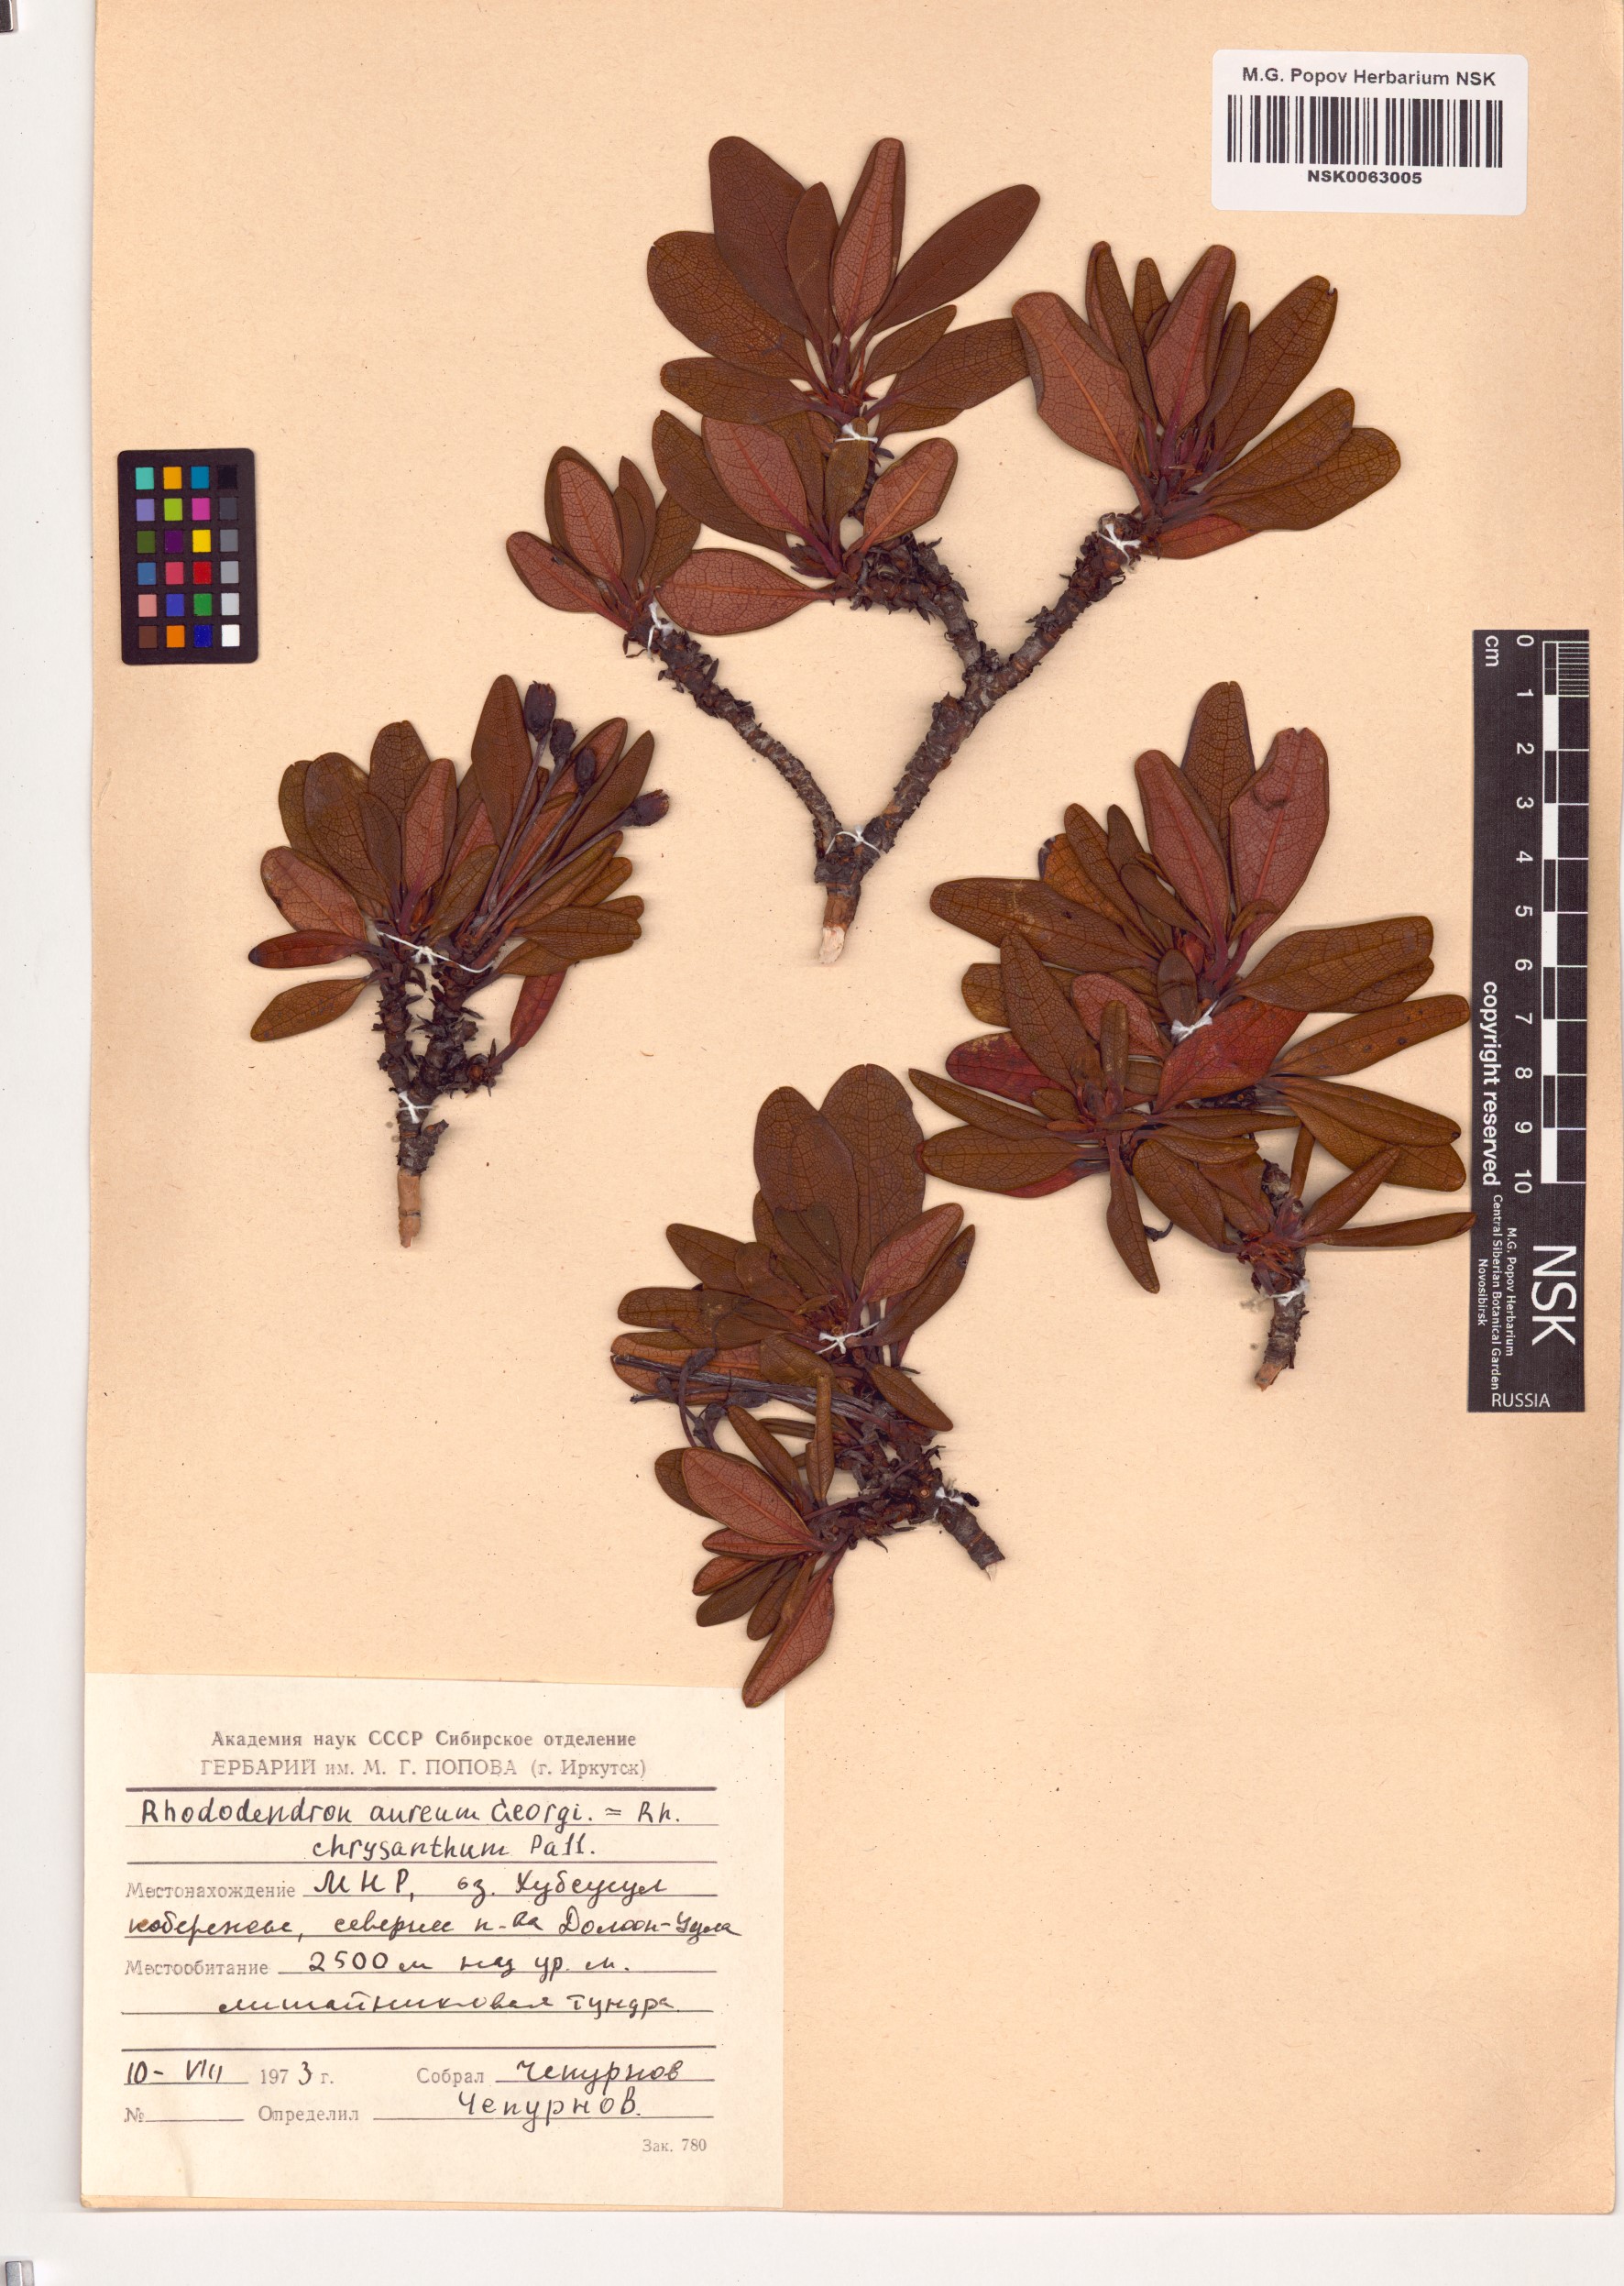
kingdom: Plantae
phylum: Tracheophyta
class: Magnoliopsida
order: Ericales
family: Ericaceae
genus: Rhododendron
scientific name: Rhododendron aureum
